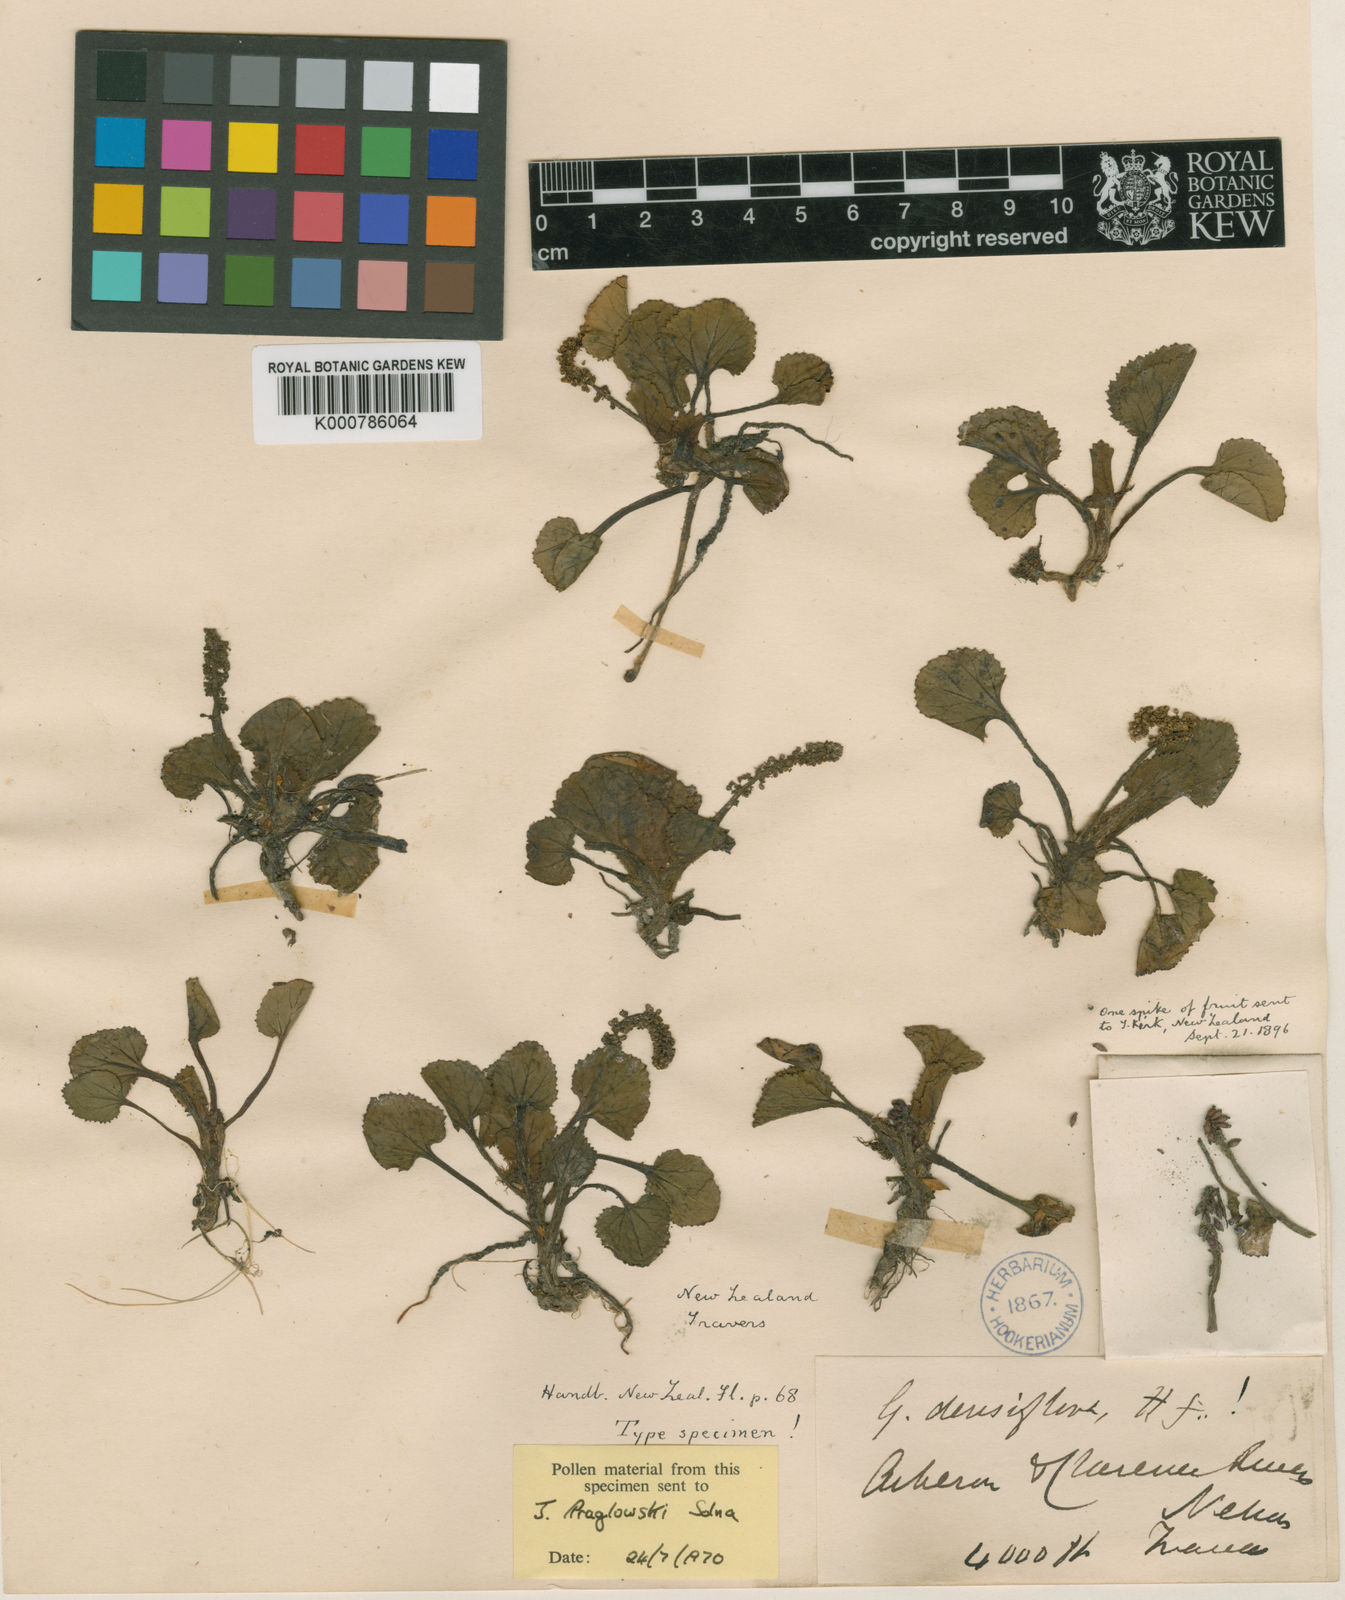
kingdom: Plantae
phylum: Tracheophyta
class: Magnoliopsida
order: Gunnerales
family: Gunneraceae
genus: Gunnera
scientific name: Gunnera densiflora
